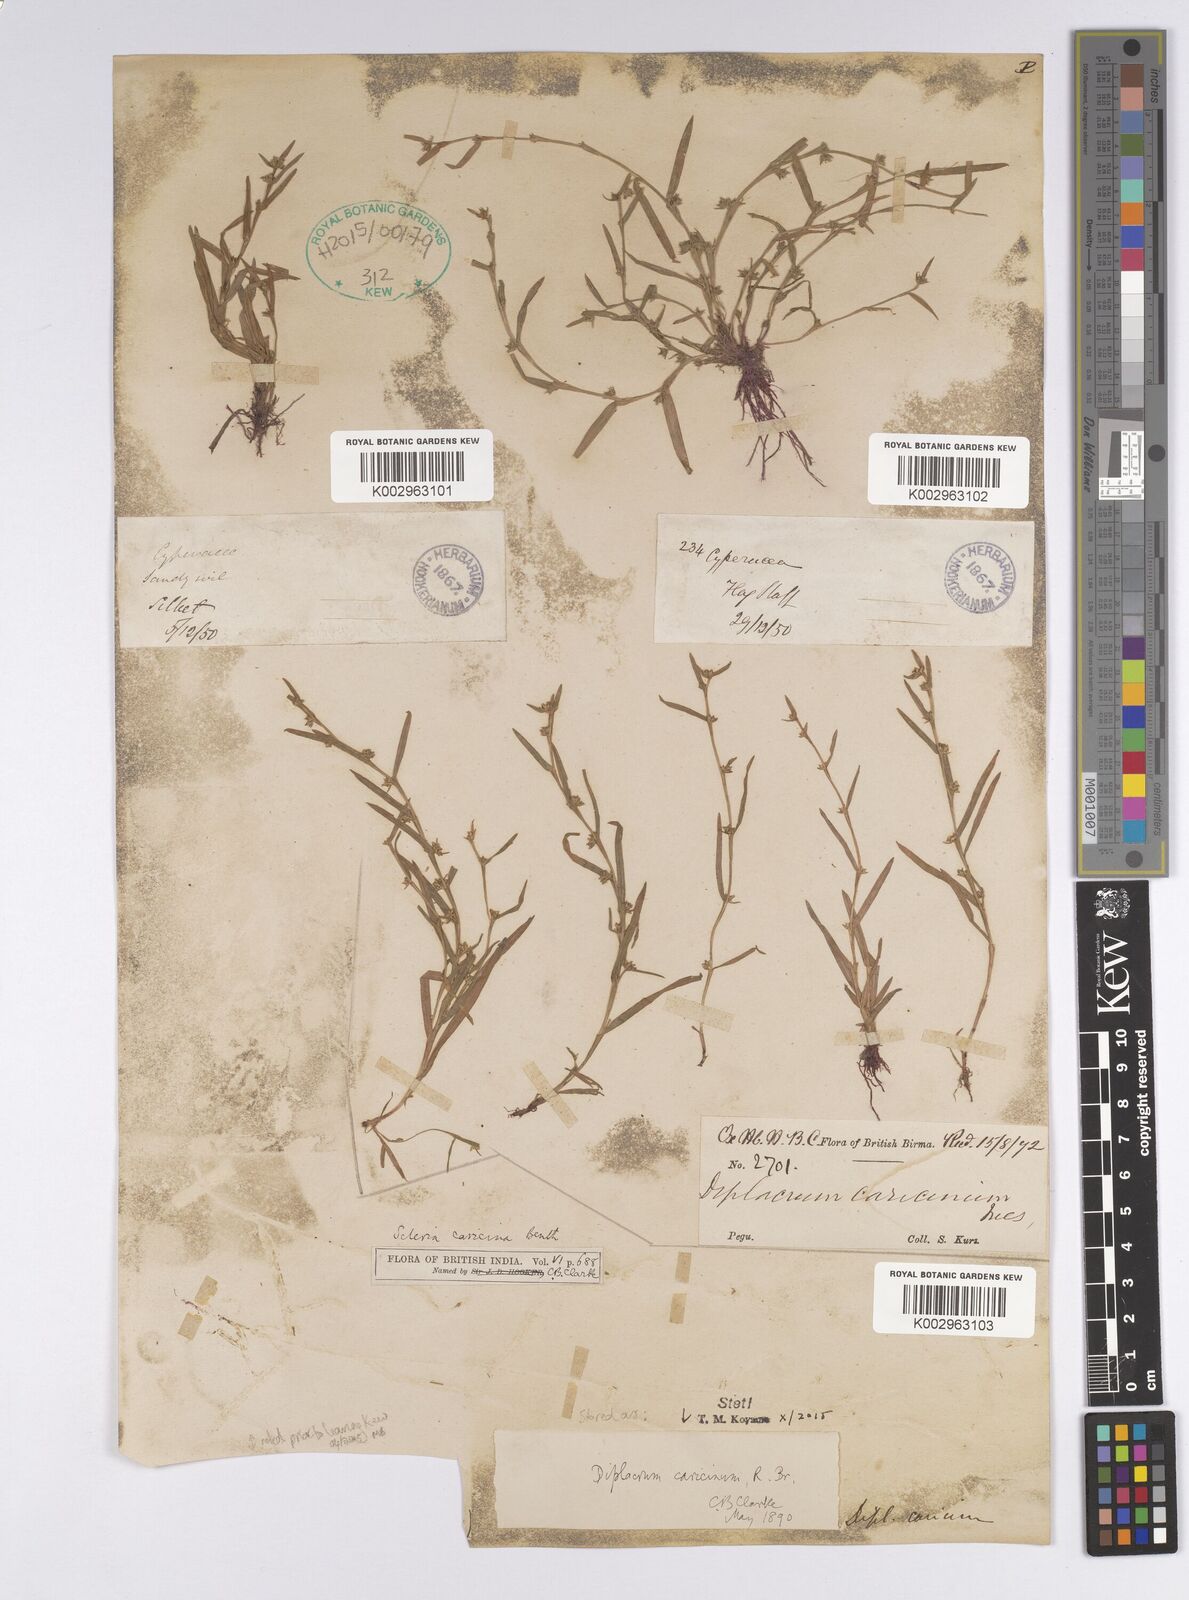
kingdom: Plantae
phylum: Tracheophyta
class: Liliopsida
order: Poales
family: Cyperaceae
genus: Diplacrum
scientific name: Diplacrum caricinum
